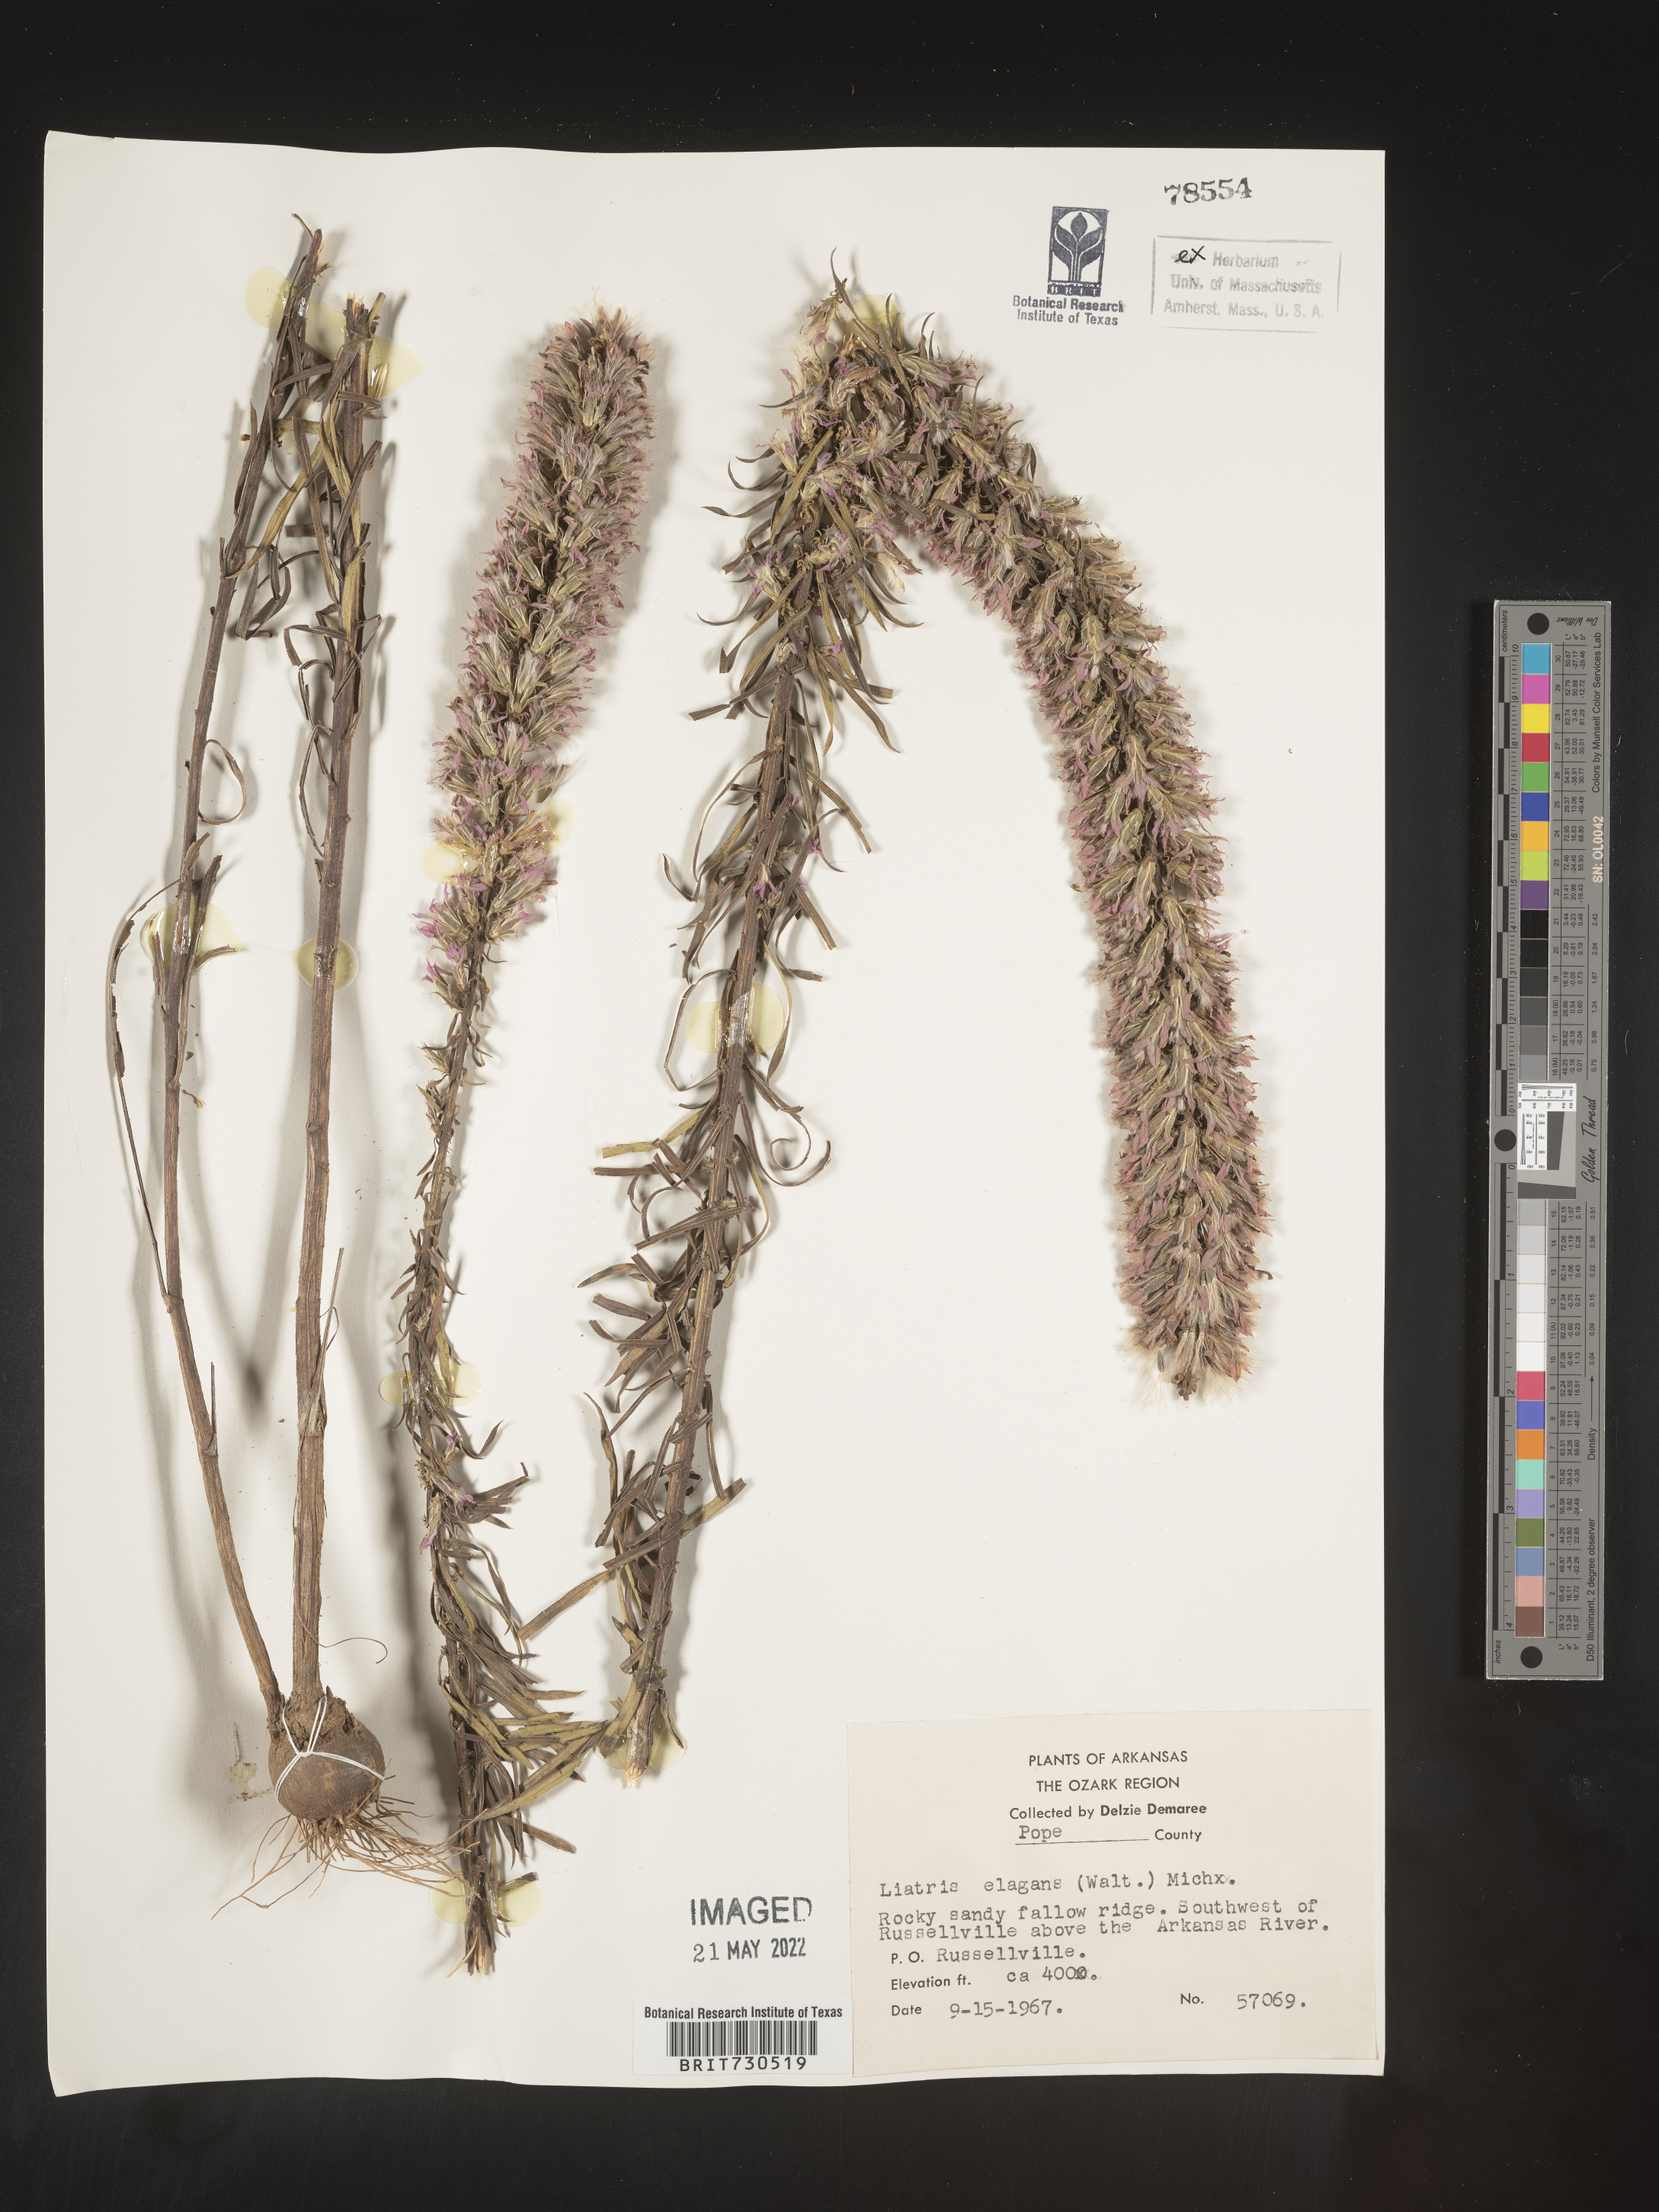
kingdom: Plantae
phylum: Tracheophyta
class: Magnoliopsida
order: Asterales
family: Asteraceae
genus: Liatris
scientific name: Liatris elegans
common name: Pinkscale gayfeather
